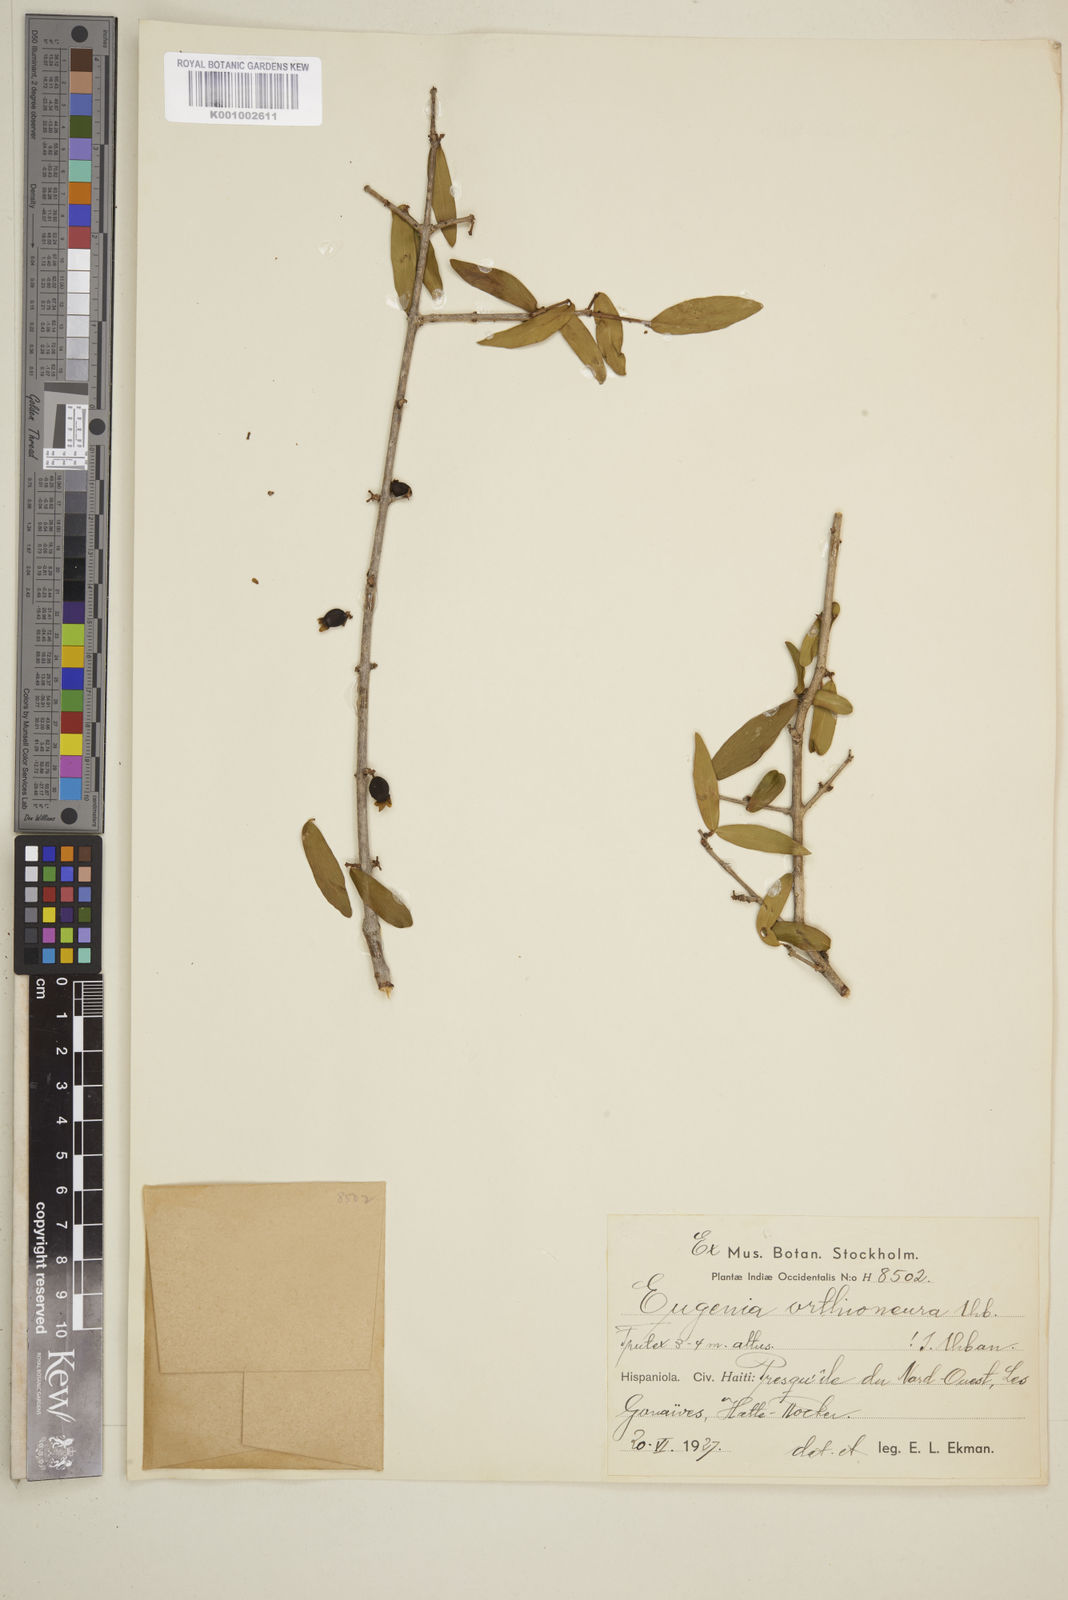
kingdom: Plantae
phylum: Tracheophyta
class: Magnoliopsida
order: Myrtales
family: Myrtaceae
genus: Eugenia
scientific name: Eugenia lindahlii
